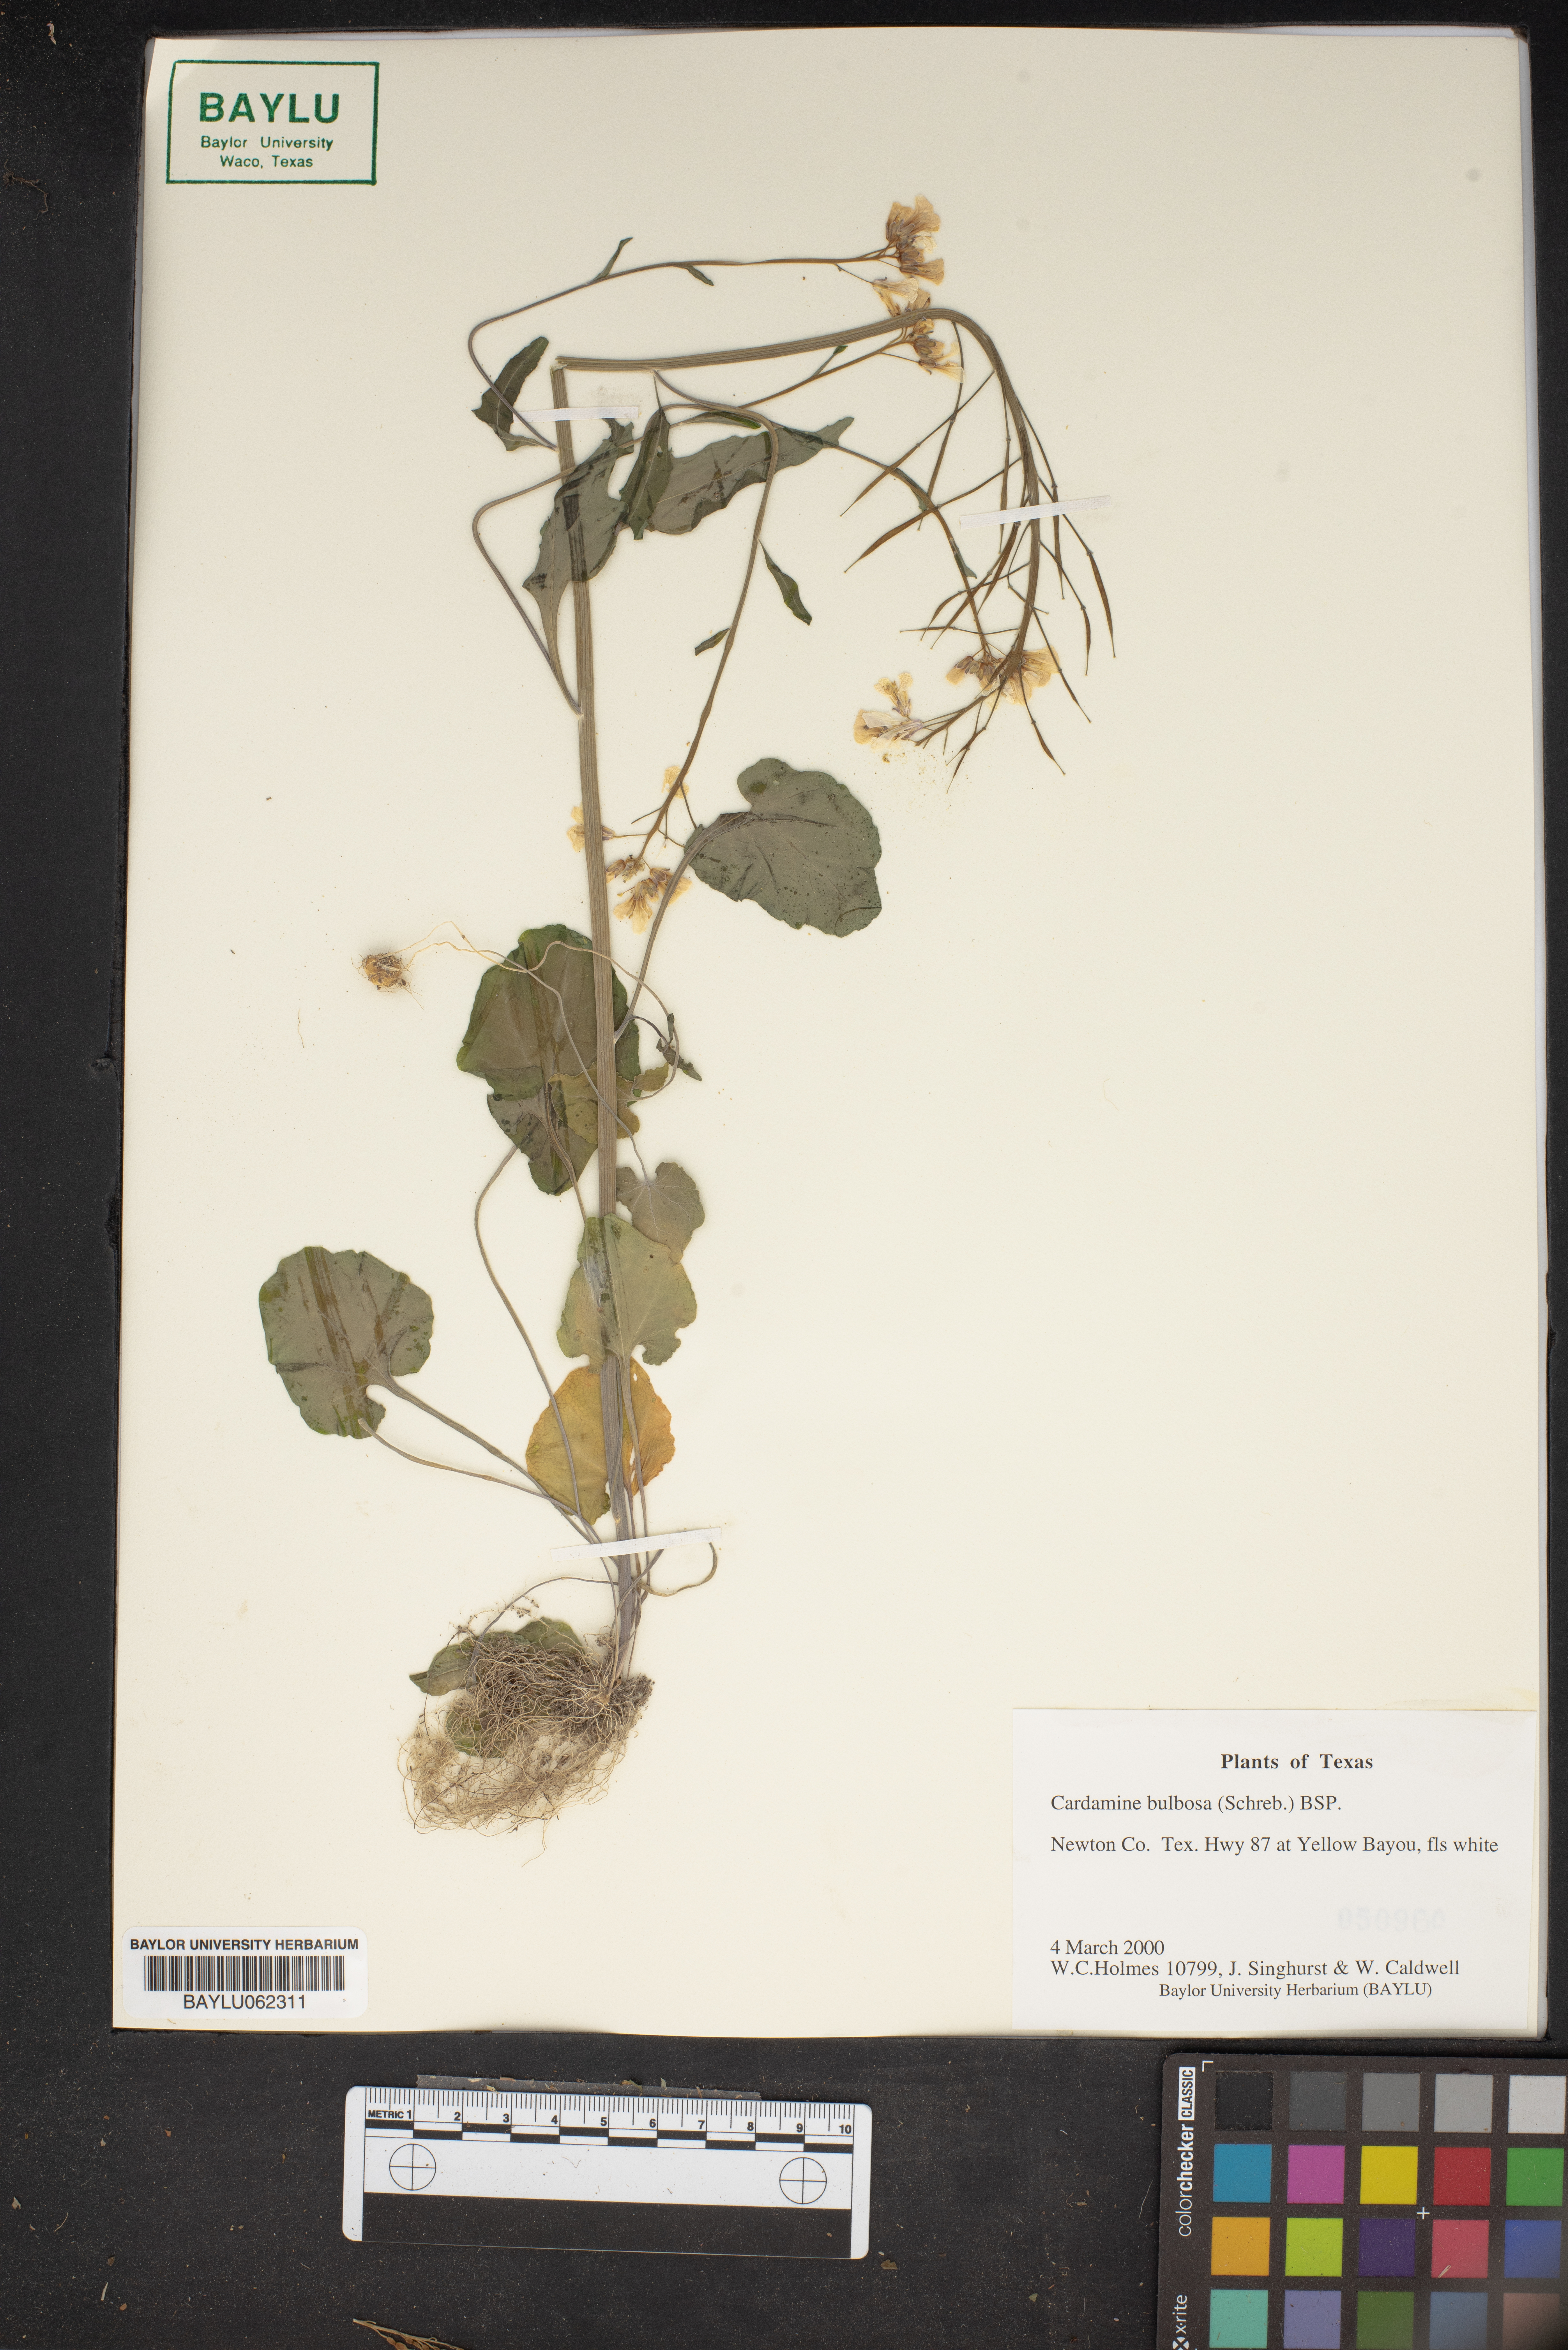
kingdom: Plantae
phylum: Tracheophyta
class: Magnoliopsida
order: Brassicales
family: Brassicaceae
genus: Cardamine
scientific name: Cardamine bulbosa
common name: Spring cress
